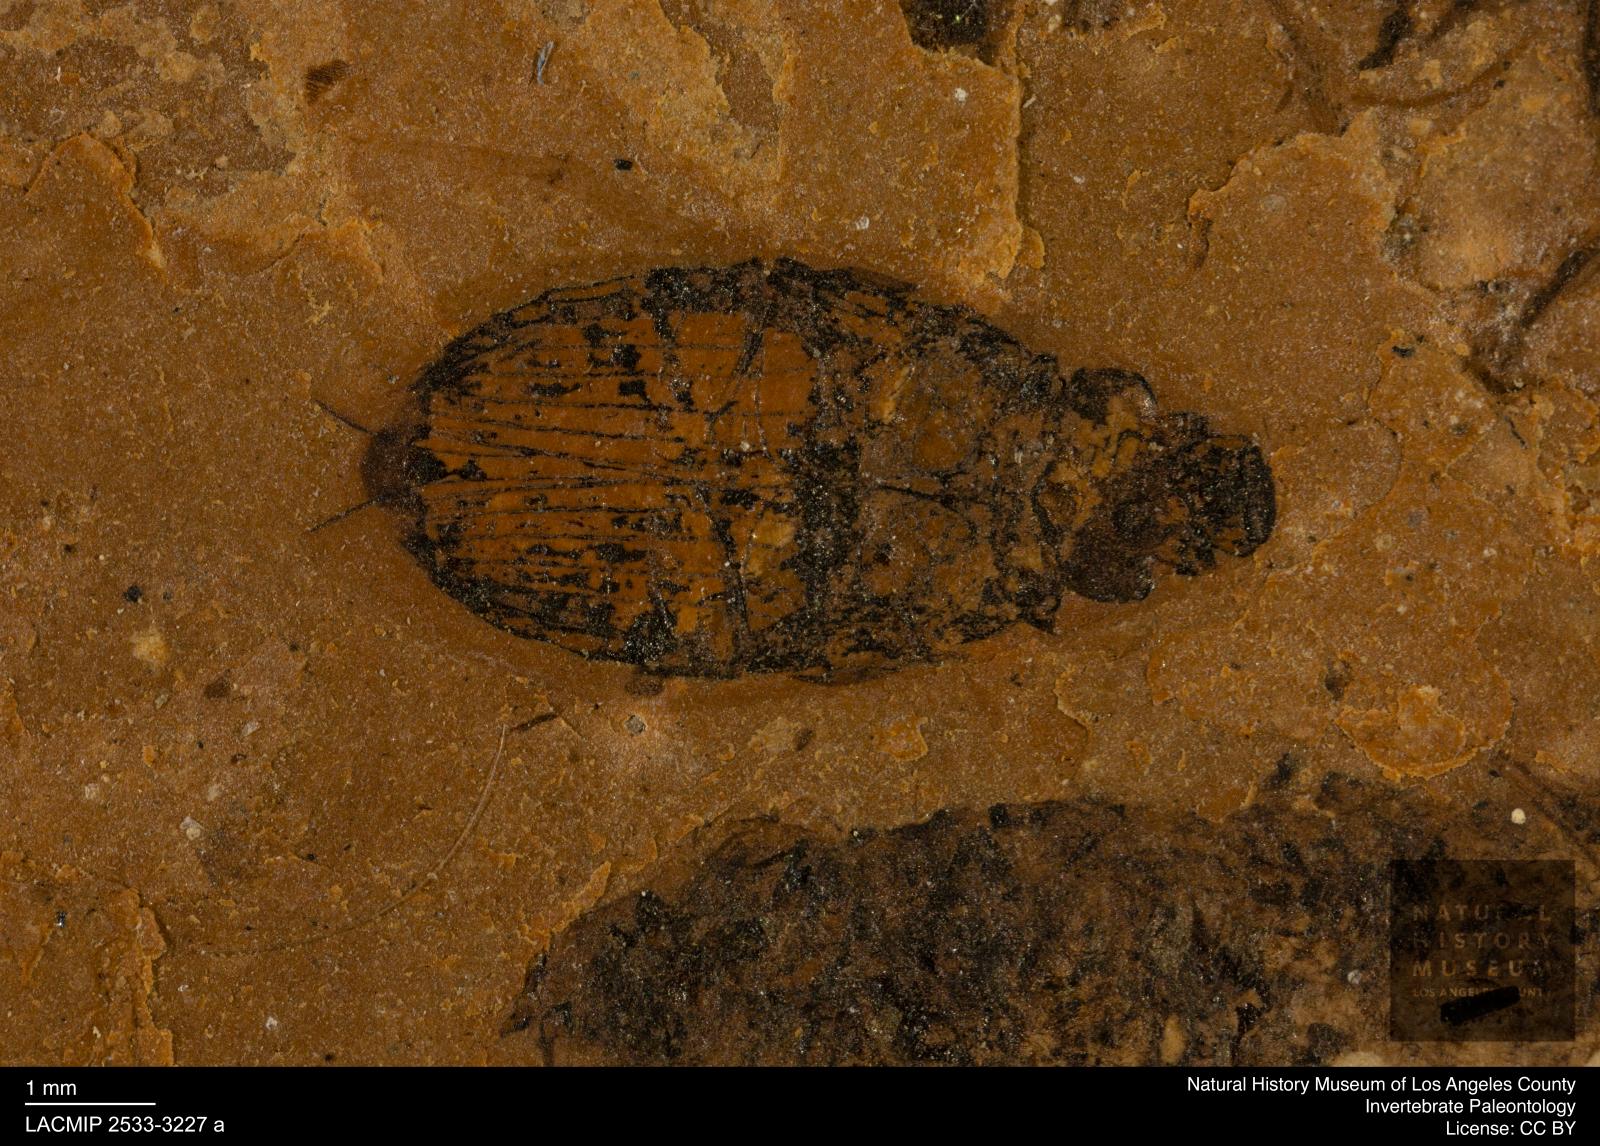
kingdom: Animalia
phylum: Arthropoda
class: Insecta
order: Coleoptera
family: Hydrophilidae
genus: Berosus
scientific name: Berosus
